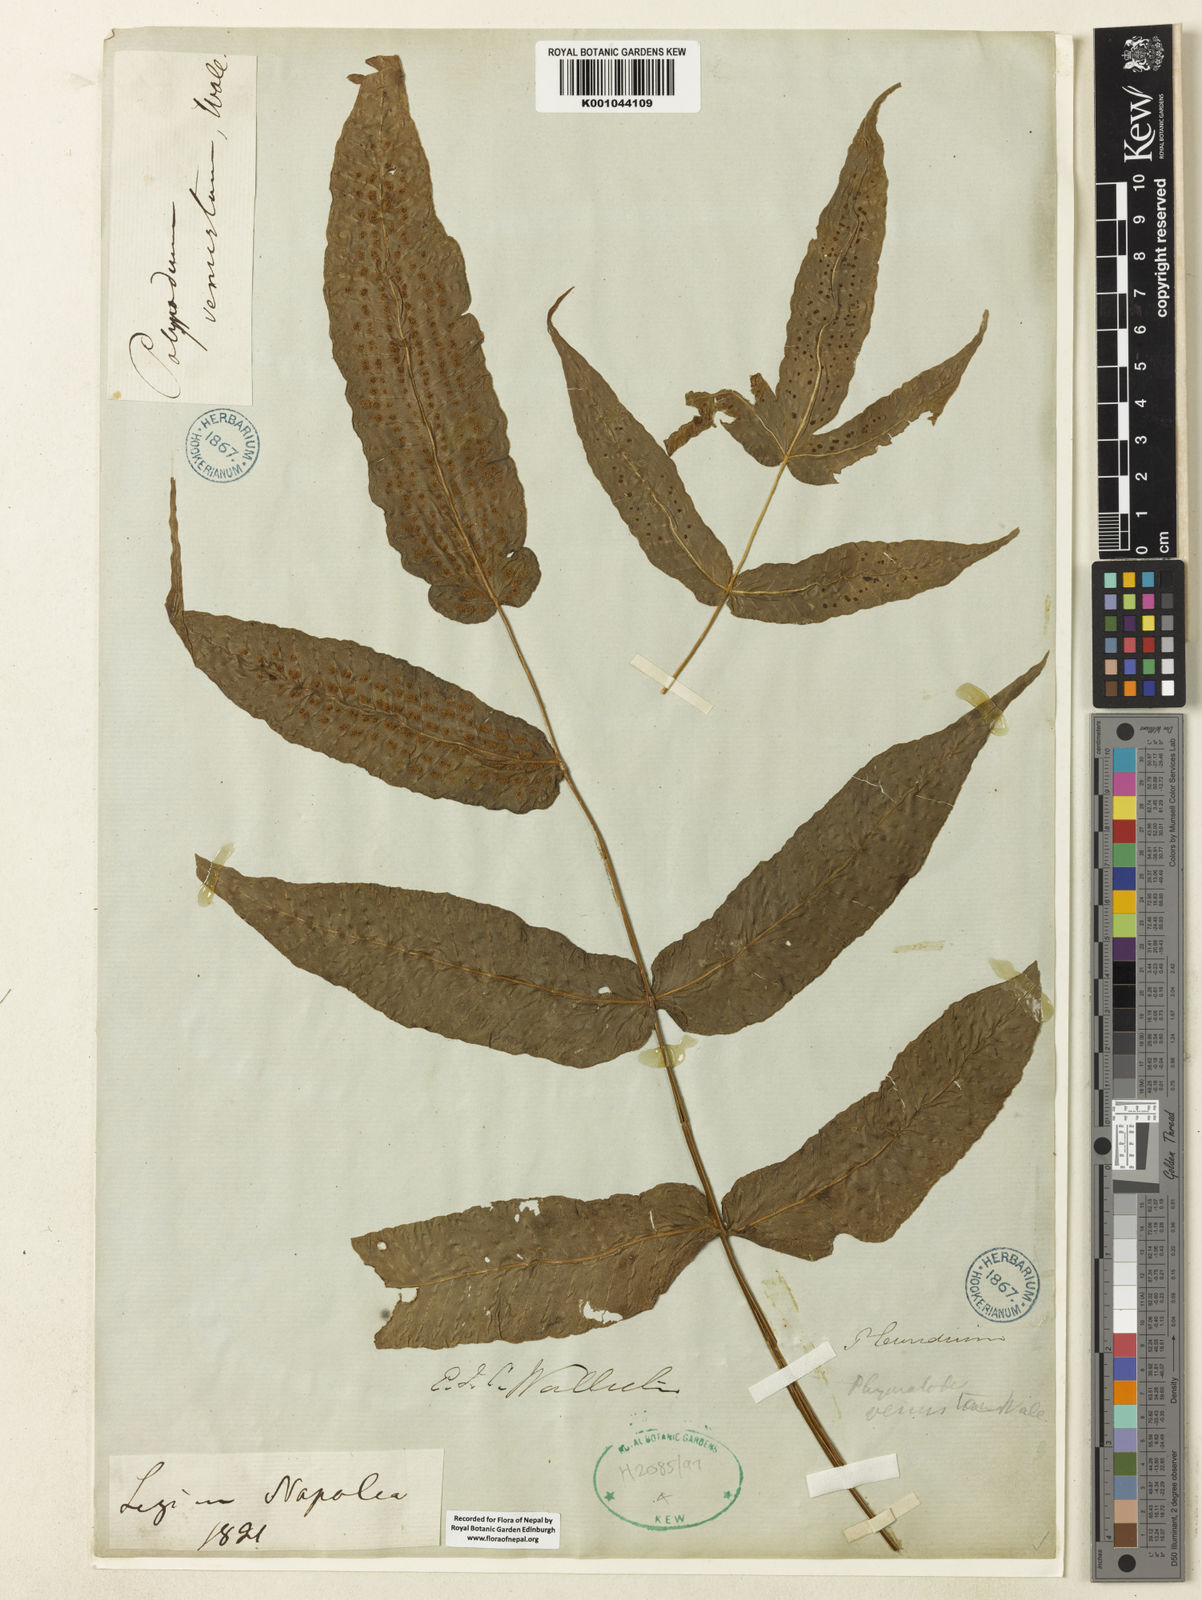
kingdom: Plantae
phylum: Tracheophyta
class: Polypodiopsida
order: Polypodiales
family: Polypodiaceae
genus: Selliguea
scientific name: Selliguea tomentosa
